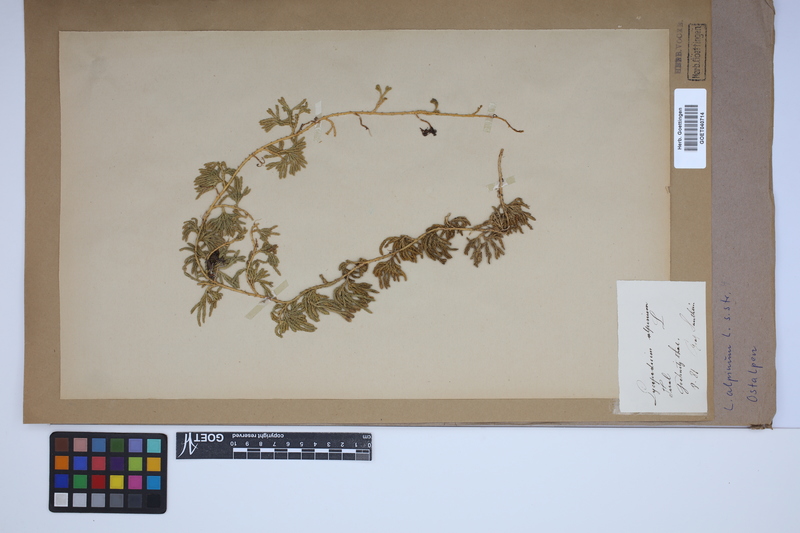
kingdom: Plantae
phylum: Tracheophyta
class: Lycopodiopsida
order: Lycopodiales
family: Lycopodiaceae
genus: Diphasiastrum
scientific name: Diphasiastrum alpinum
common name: Alpine clubmoss
